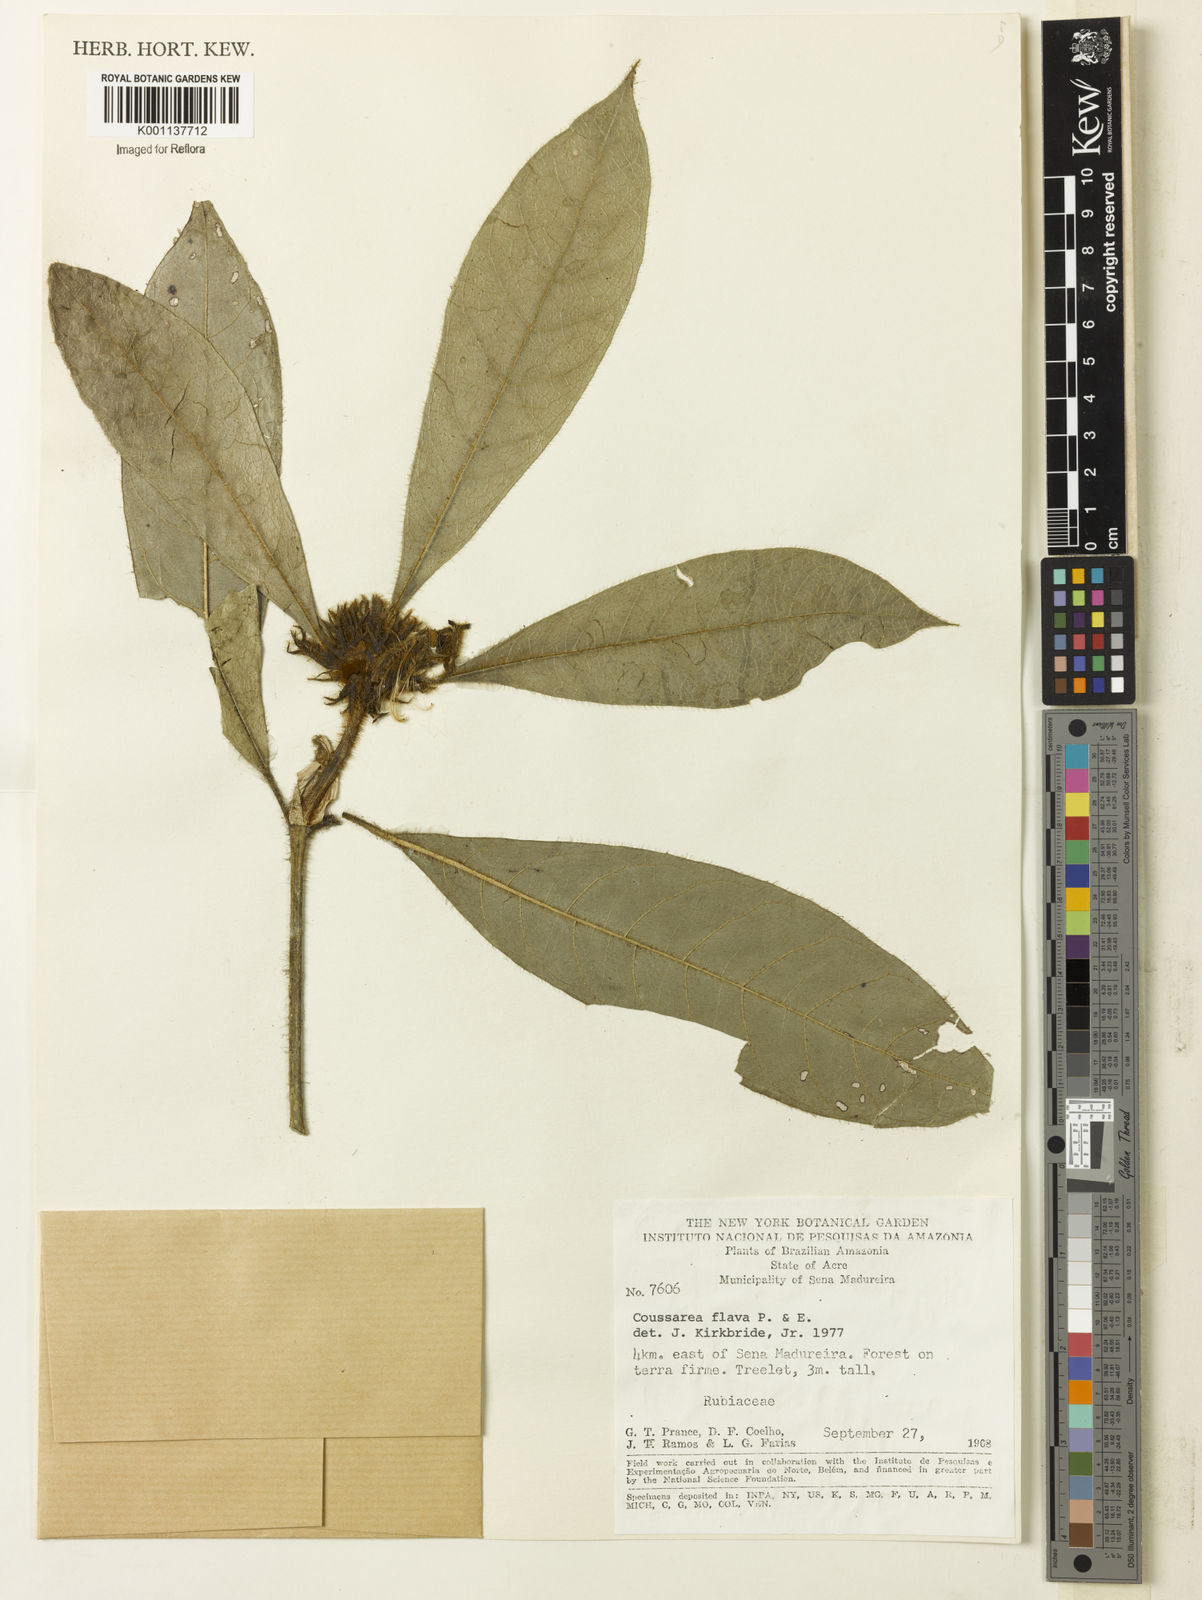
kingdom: Plantae
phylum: Tracheophyta
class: Magnoliopsida
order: Gentianales
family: Rubiaceae
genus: Coussarea
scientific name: Coussarea flava
